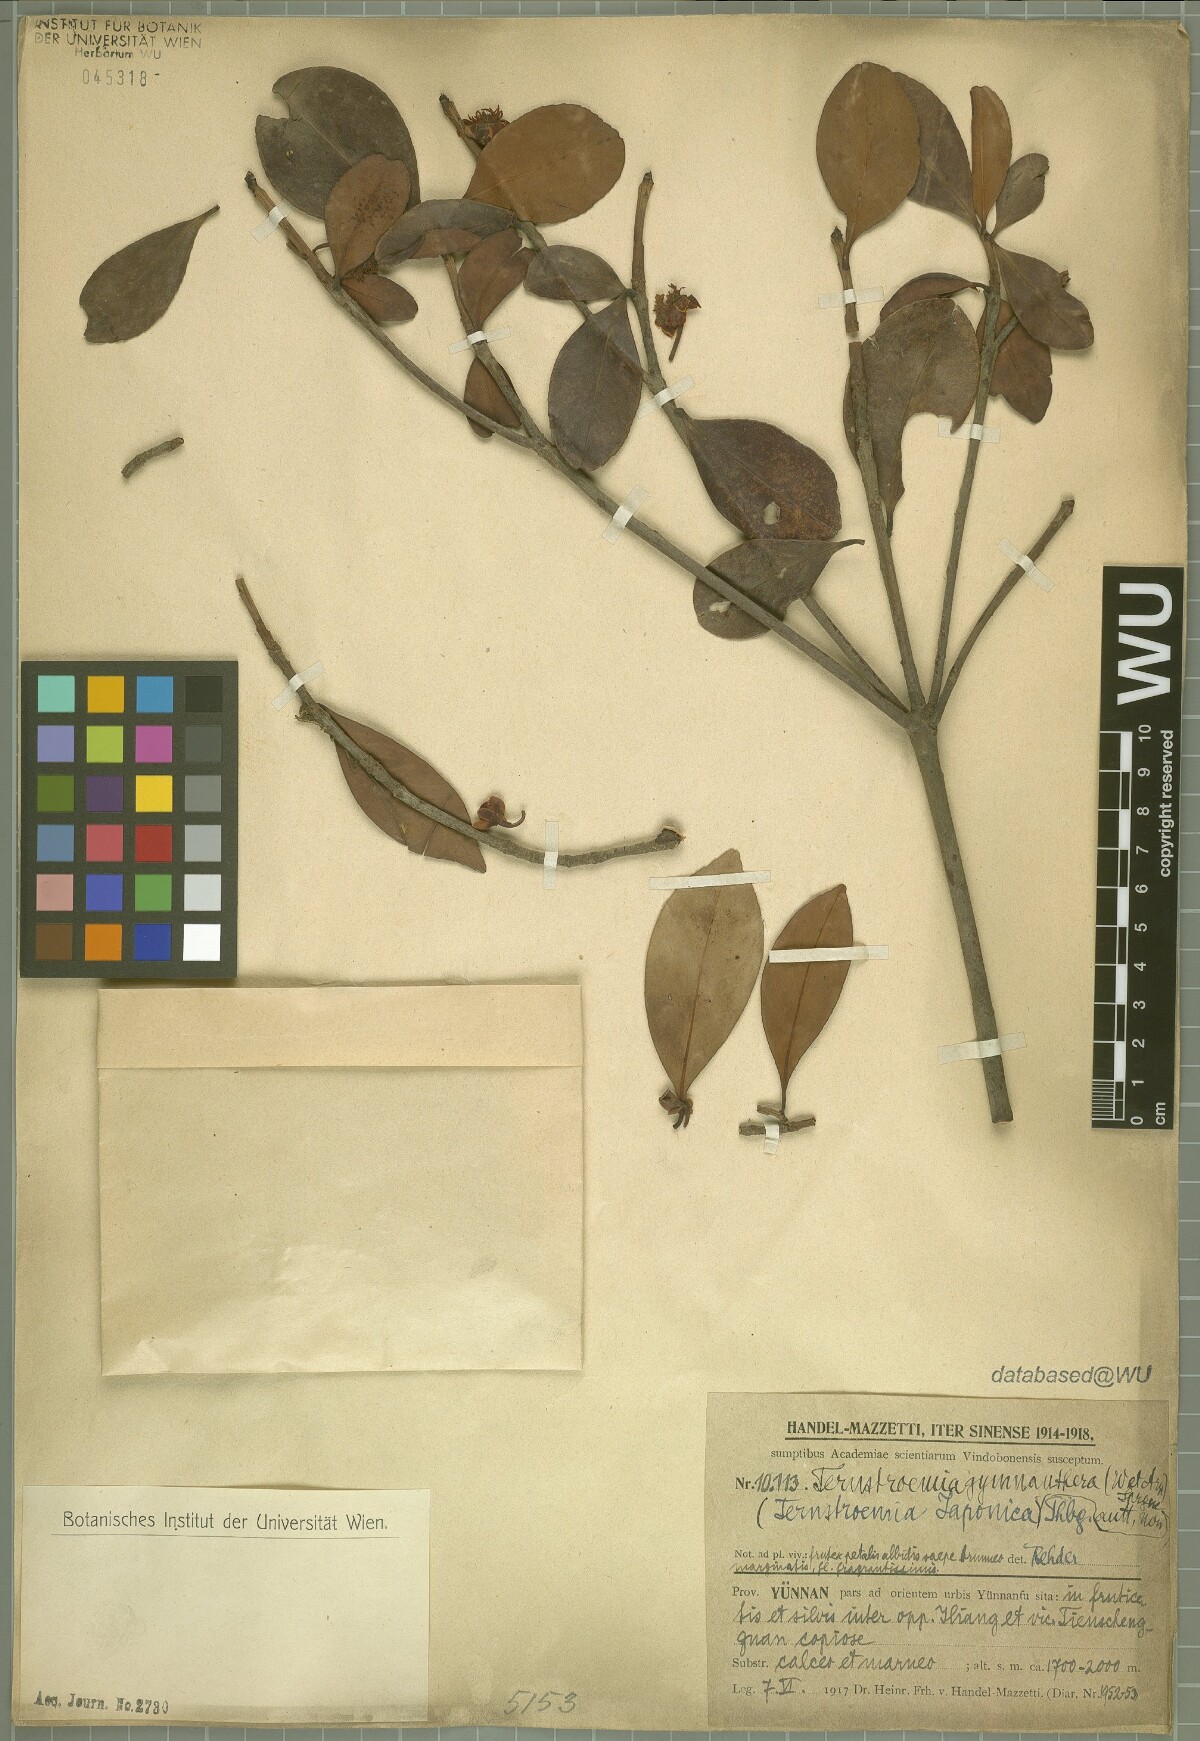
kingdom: Plantae
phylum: Tracheophyta
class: Magnoliopsida
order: Ericales
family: Pentaphylacaceae
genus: Ternstroemia
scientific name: Ternstroemia gymnanthera
